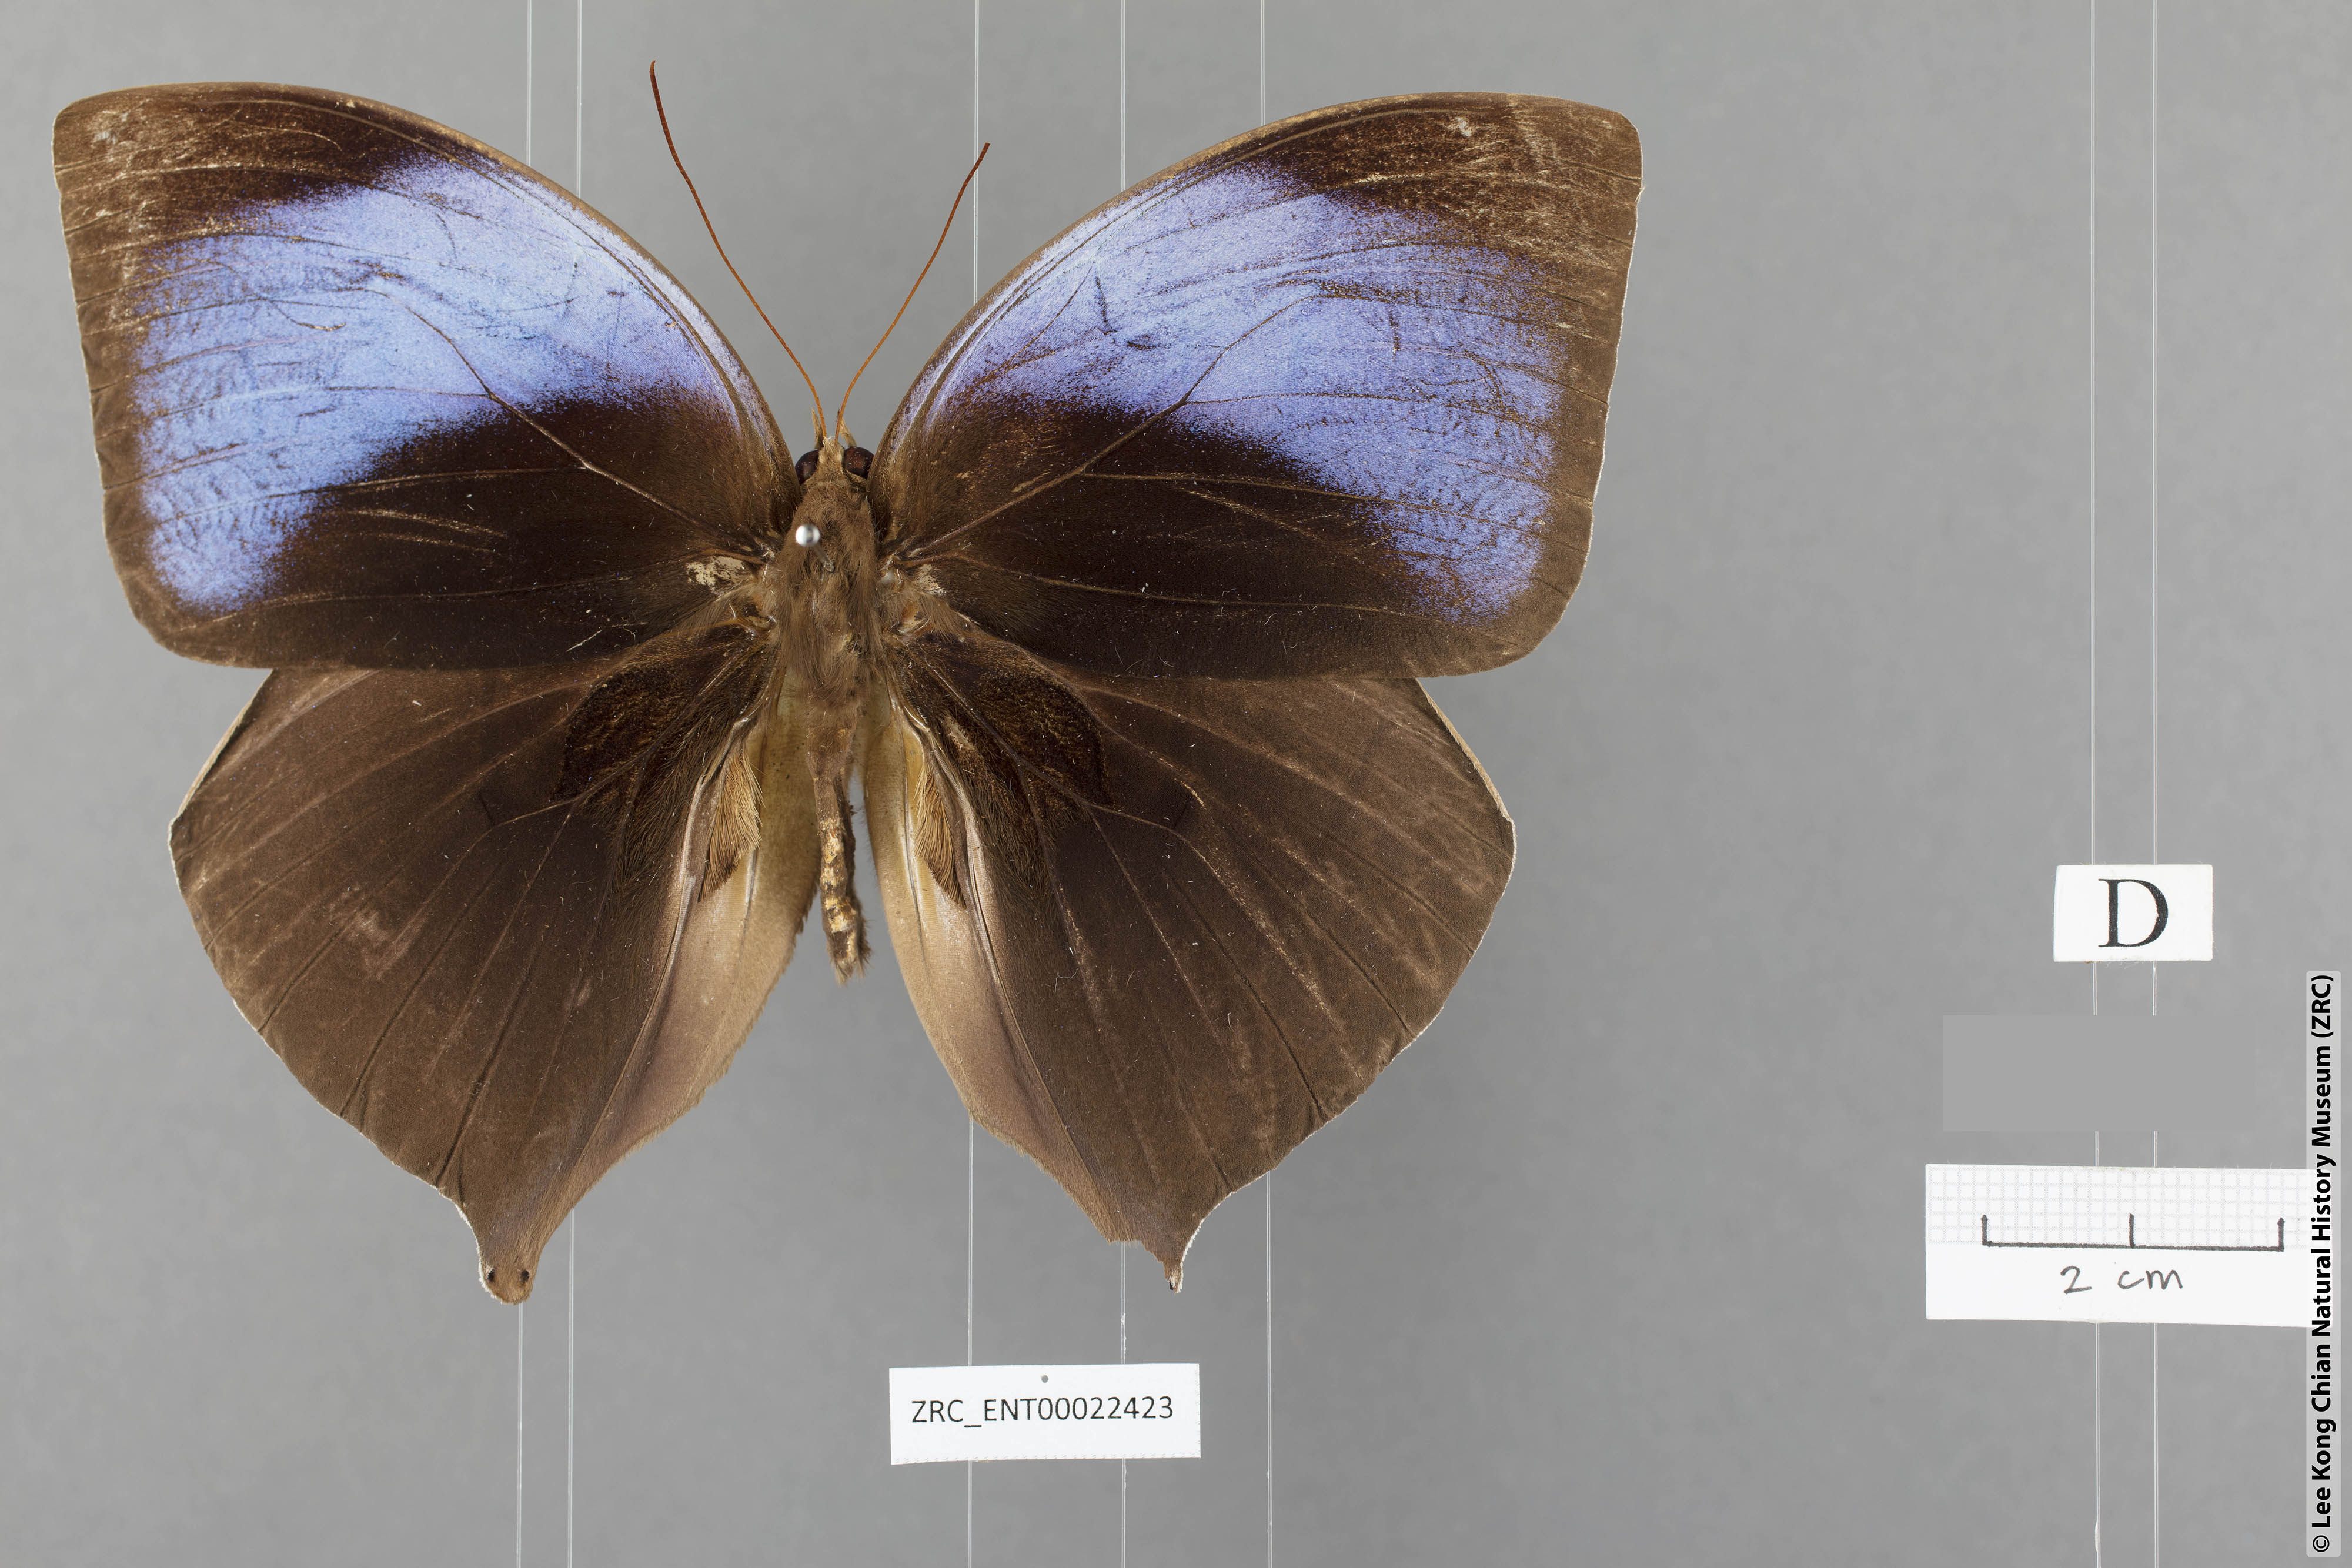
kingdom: Animalia
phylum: Arthropoda
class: Insecta
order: Lepidoptera
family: Nymphalidae
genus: Zeuxidia
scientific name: Zeuxidia aurelia
